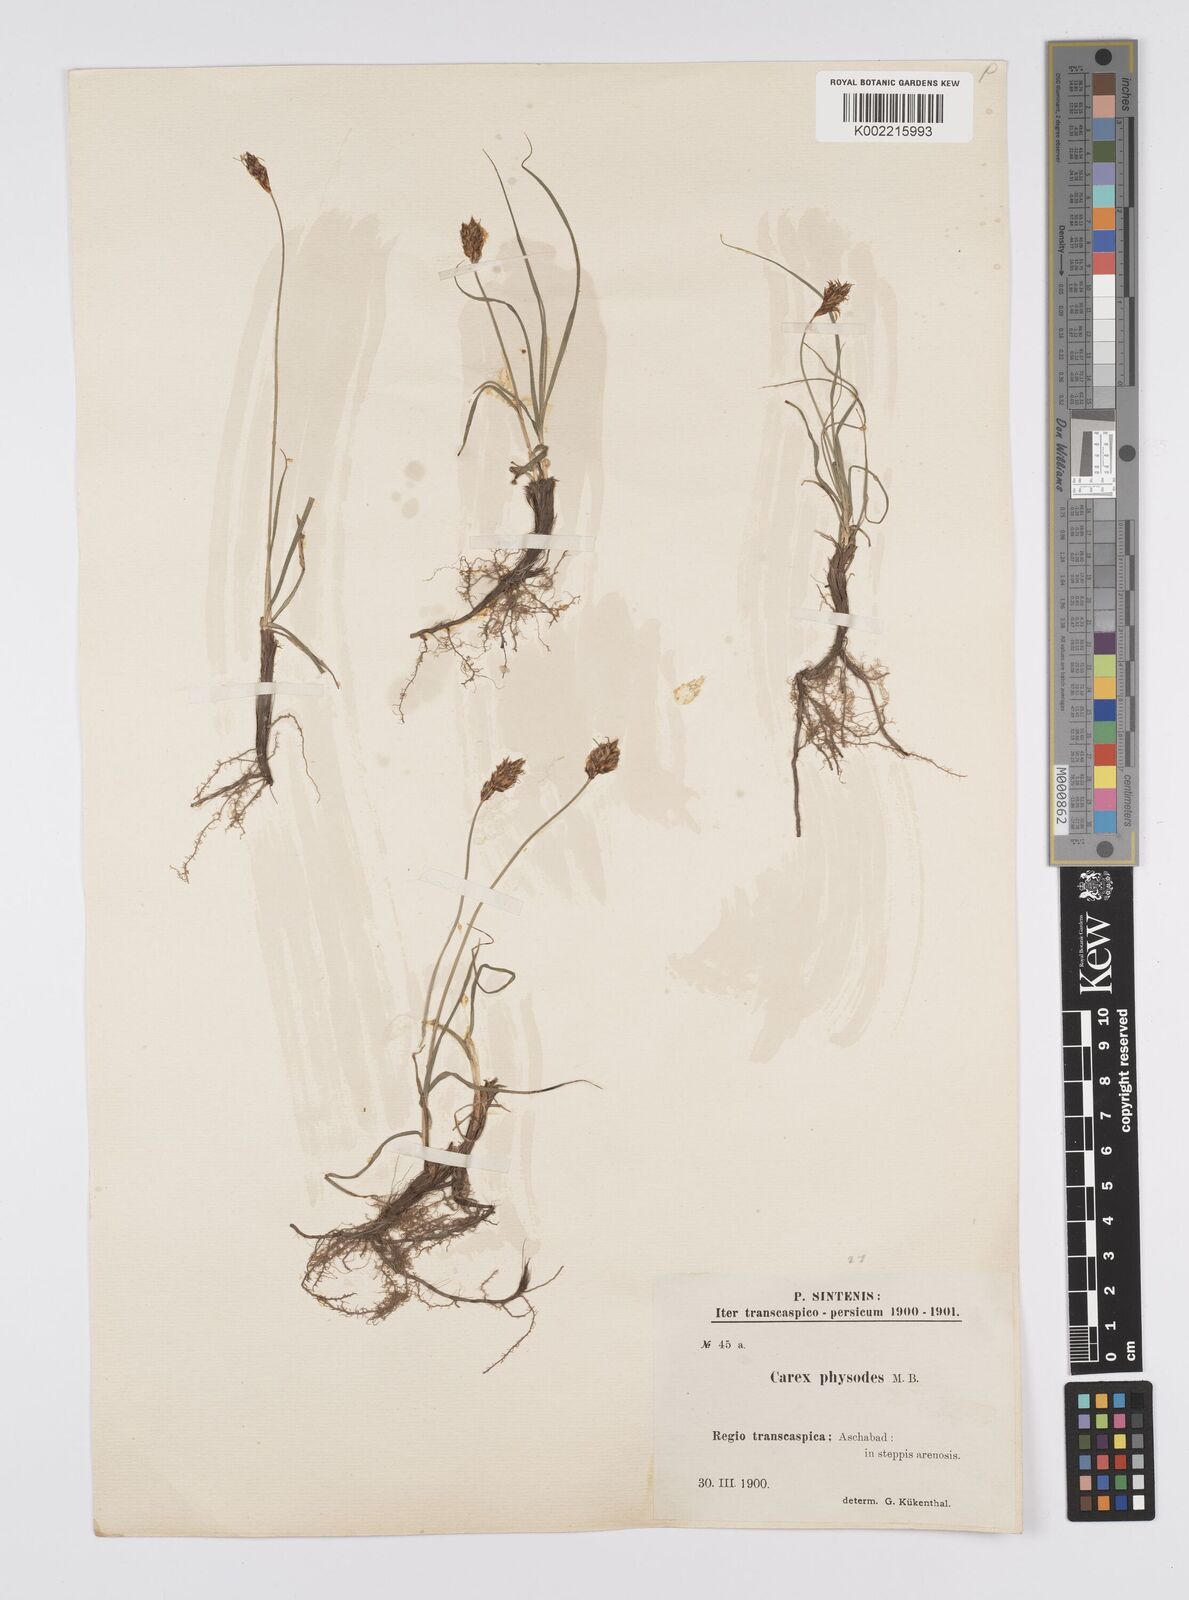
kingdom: Plantae
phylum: Tracheophyta
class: Liliopsida
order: Poales
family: Cyperaceae
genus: Carex
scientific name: Carex physodes
